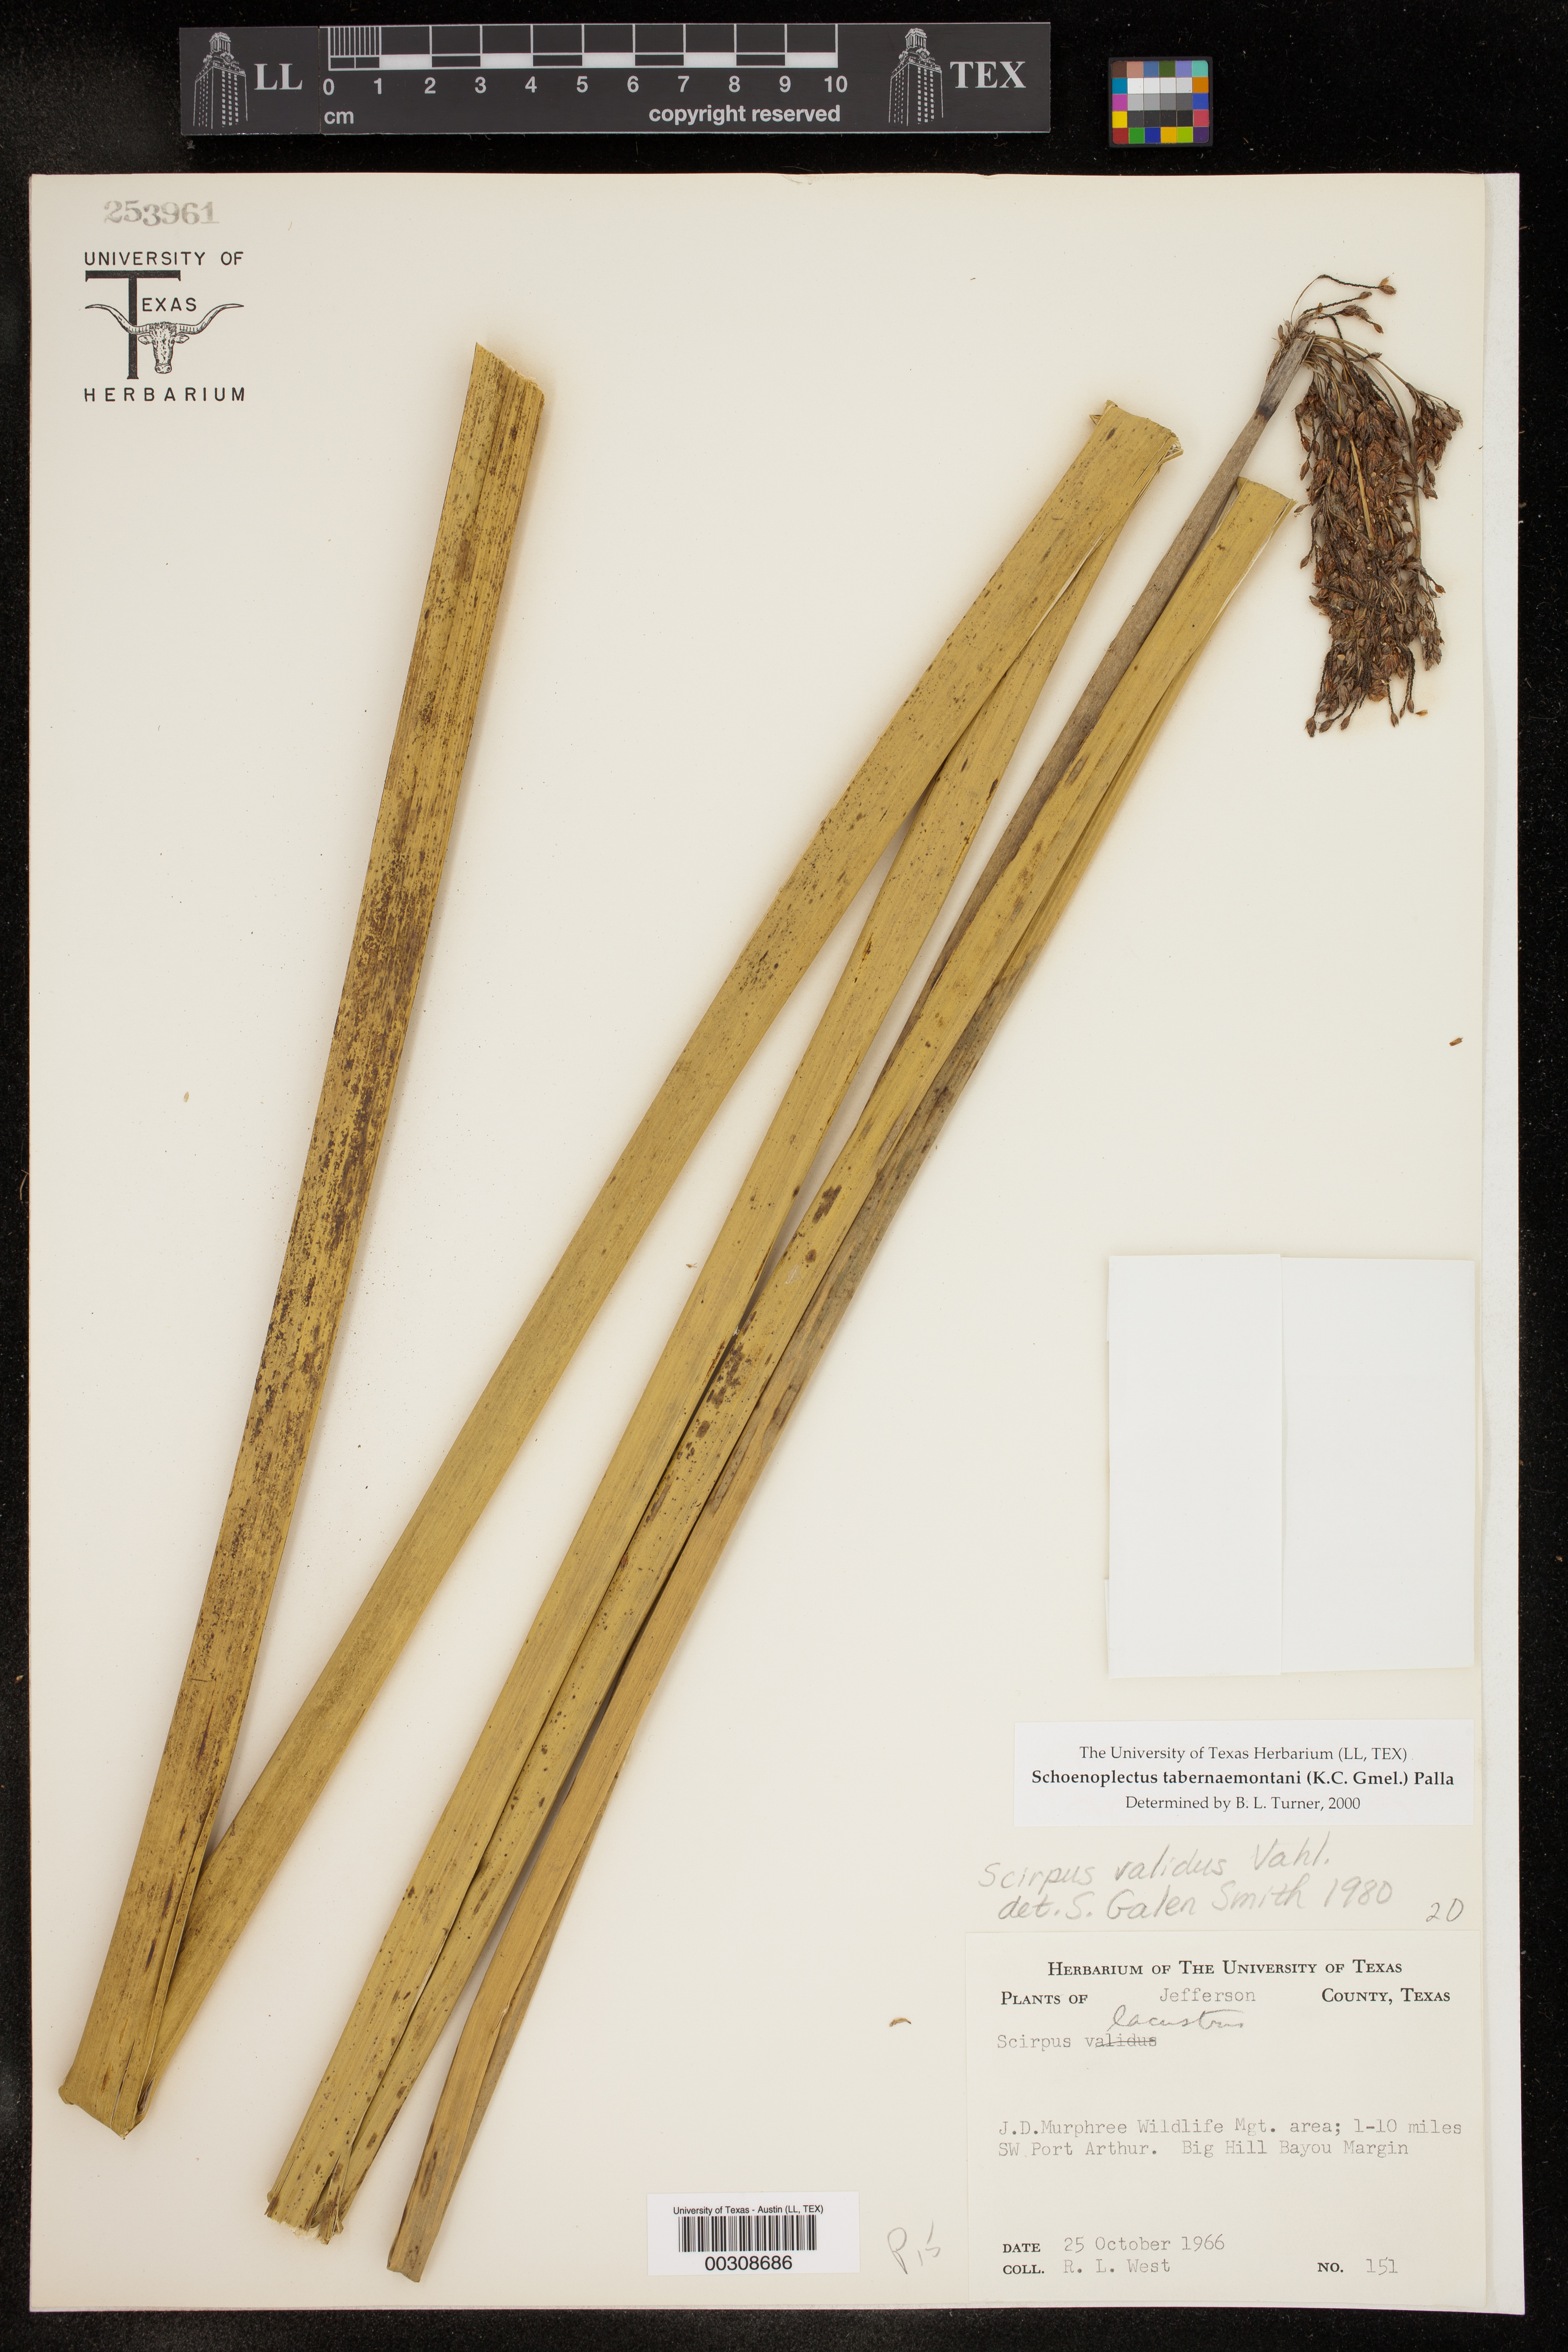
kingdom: Plantae
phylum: Tracheophyta
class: Liliopsida
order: Poales
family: Cyperaceae
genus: Schoenoplectus
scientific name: Schoenoplectus tabernaemontani
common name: Grey club-rush
